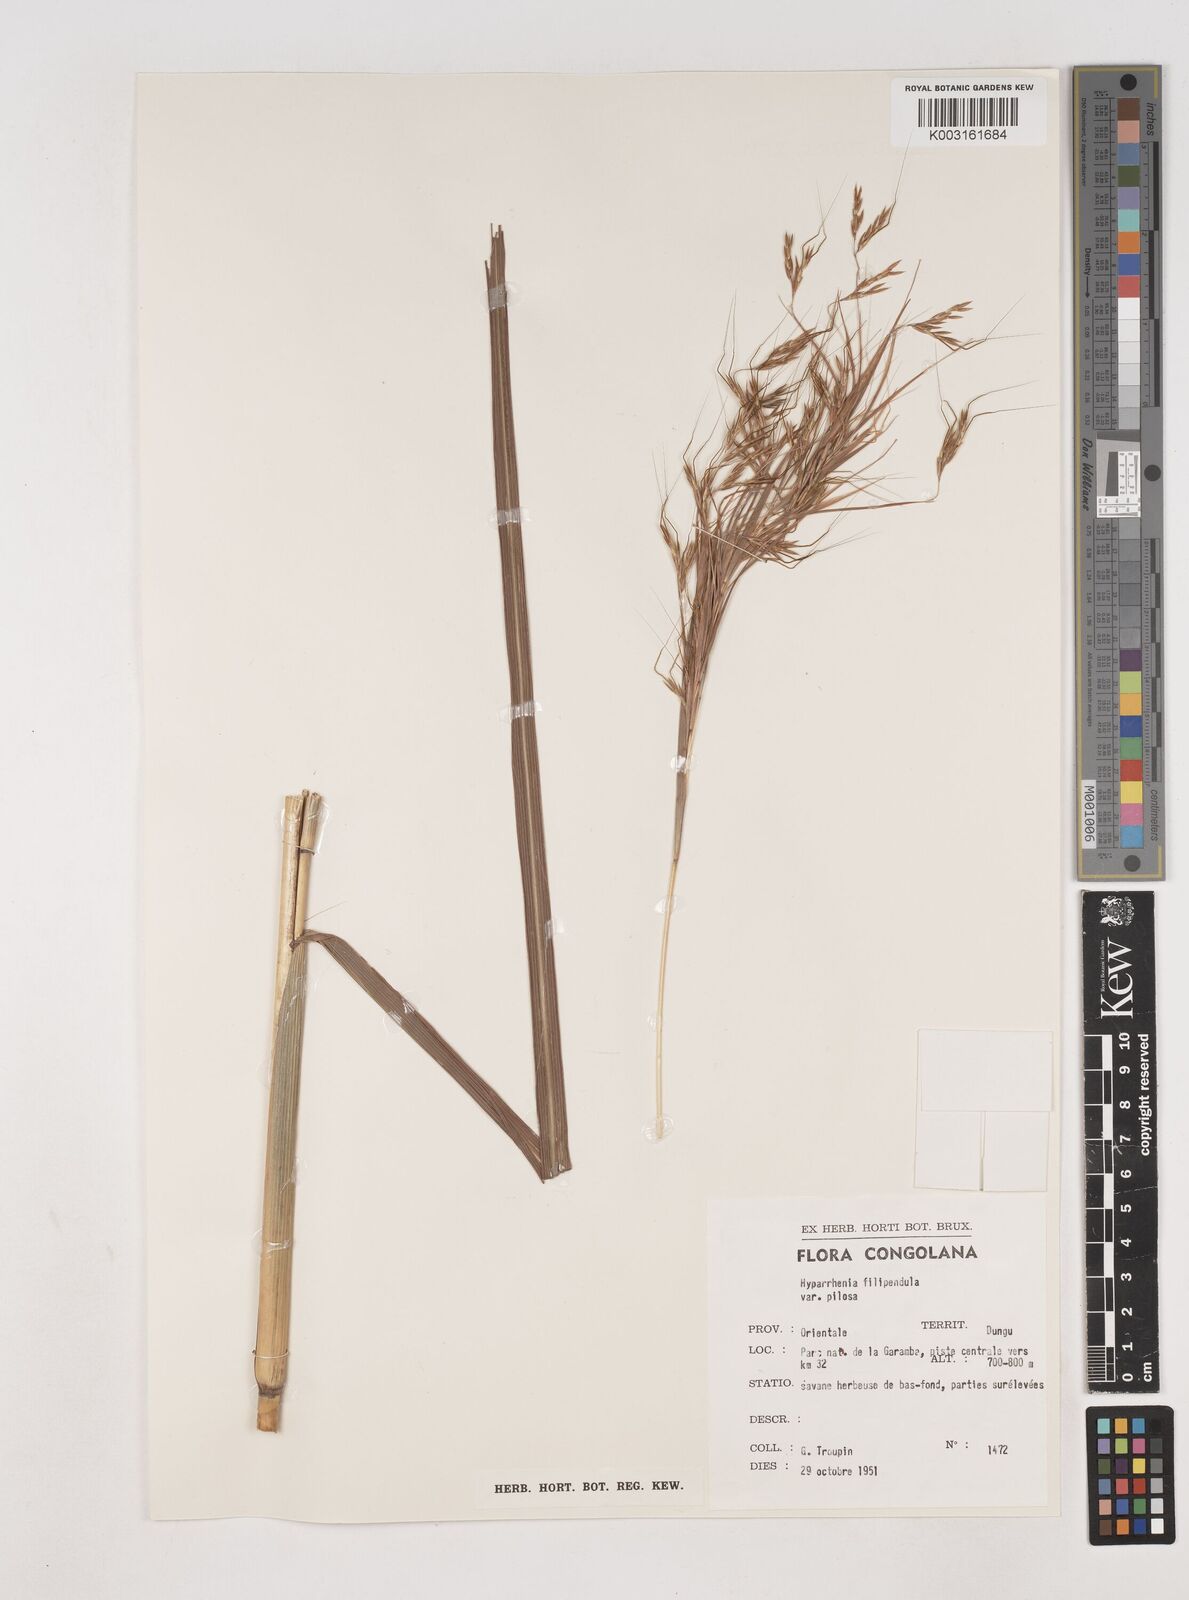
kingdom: Plantae
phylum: Tracheophyta
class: Liliopsida
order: Poales
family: Poaceae
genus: Hyparrhenia
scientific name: Hyparrhenia poecilotricha
